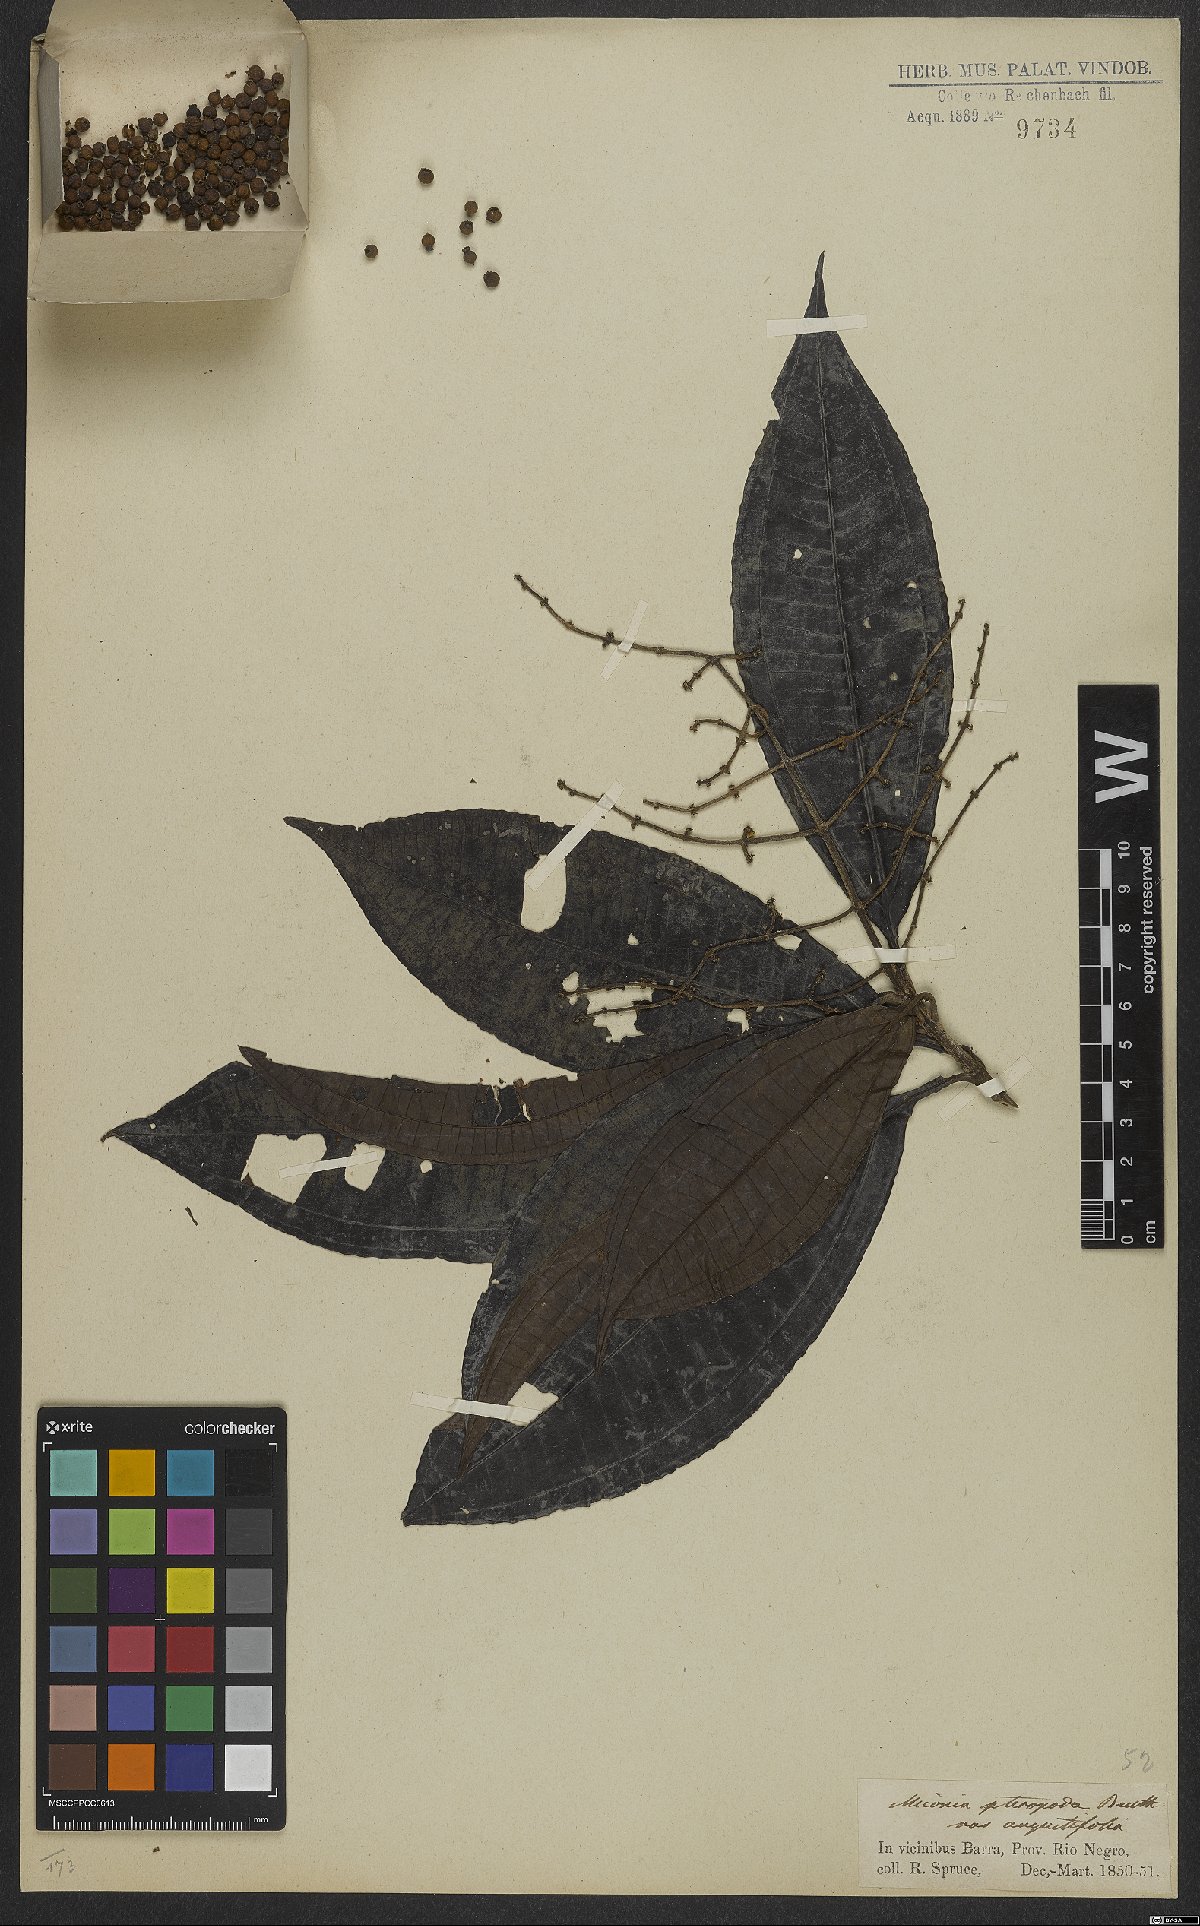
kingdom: Plantae
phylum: Tracheophyta
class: Magnoliopsida
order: Myrtales
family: Melastomataceae
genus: Miconia
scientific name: Miconia prasina
